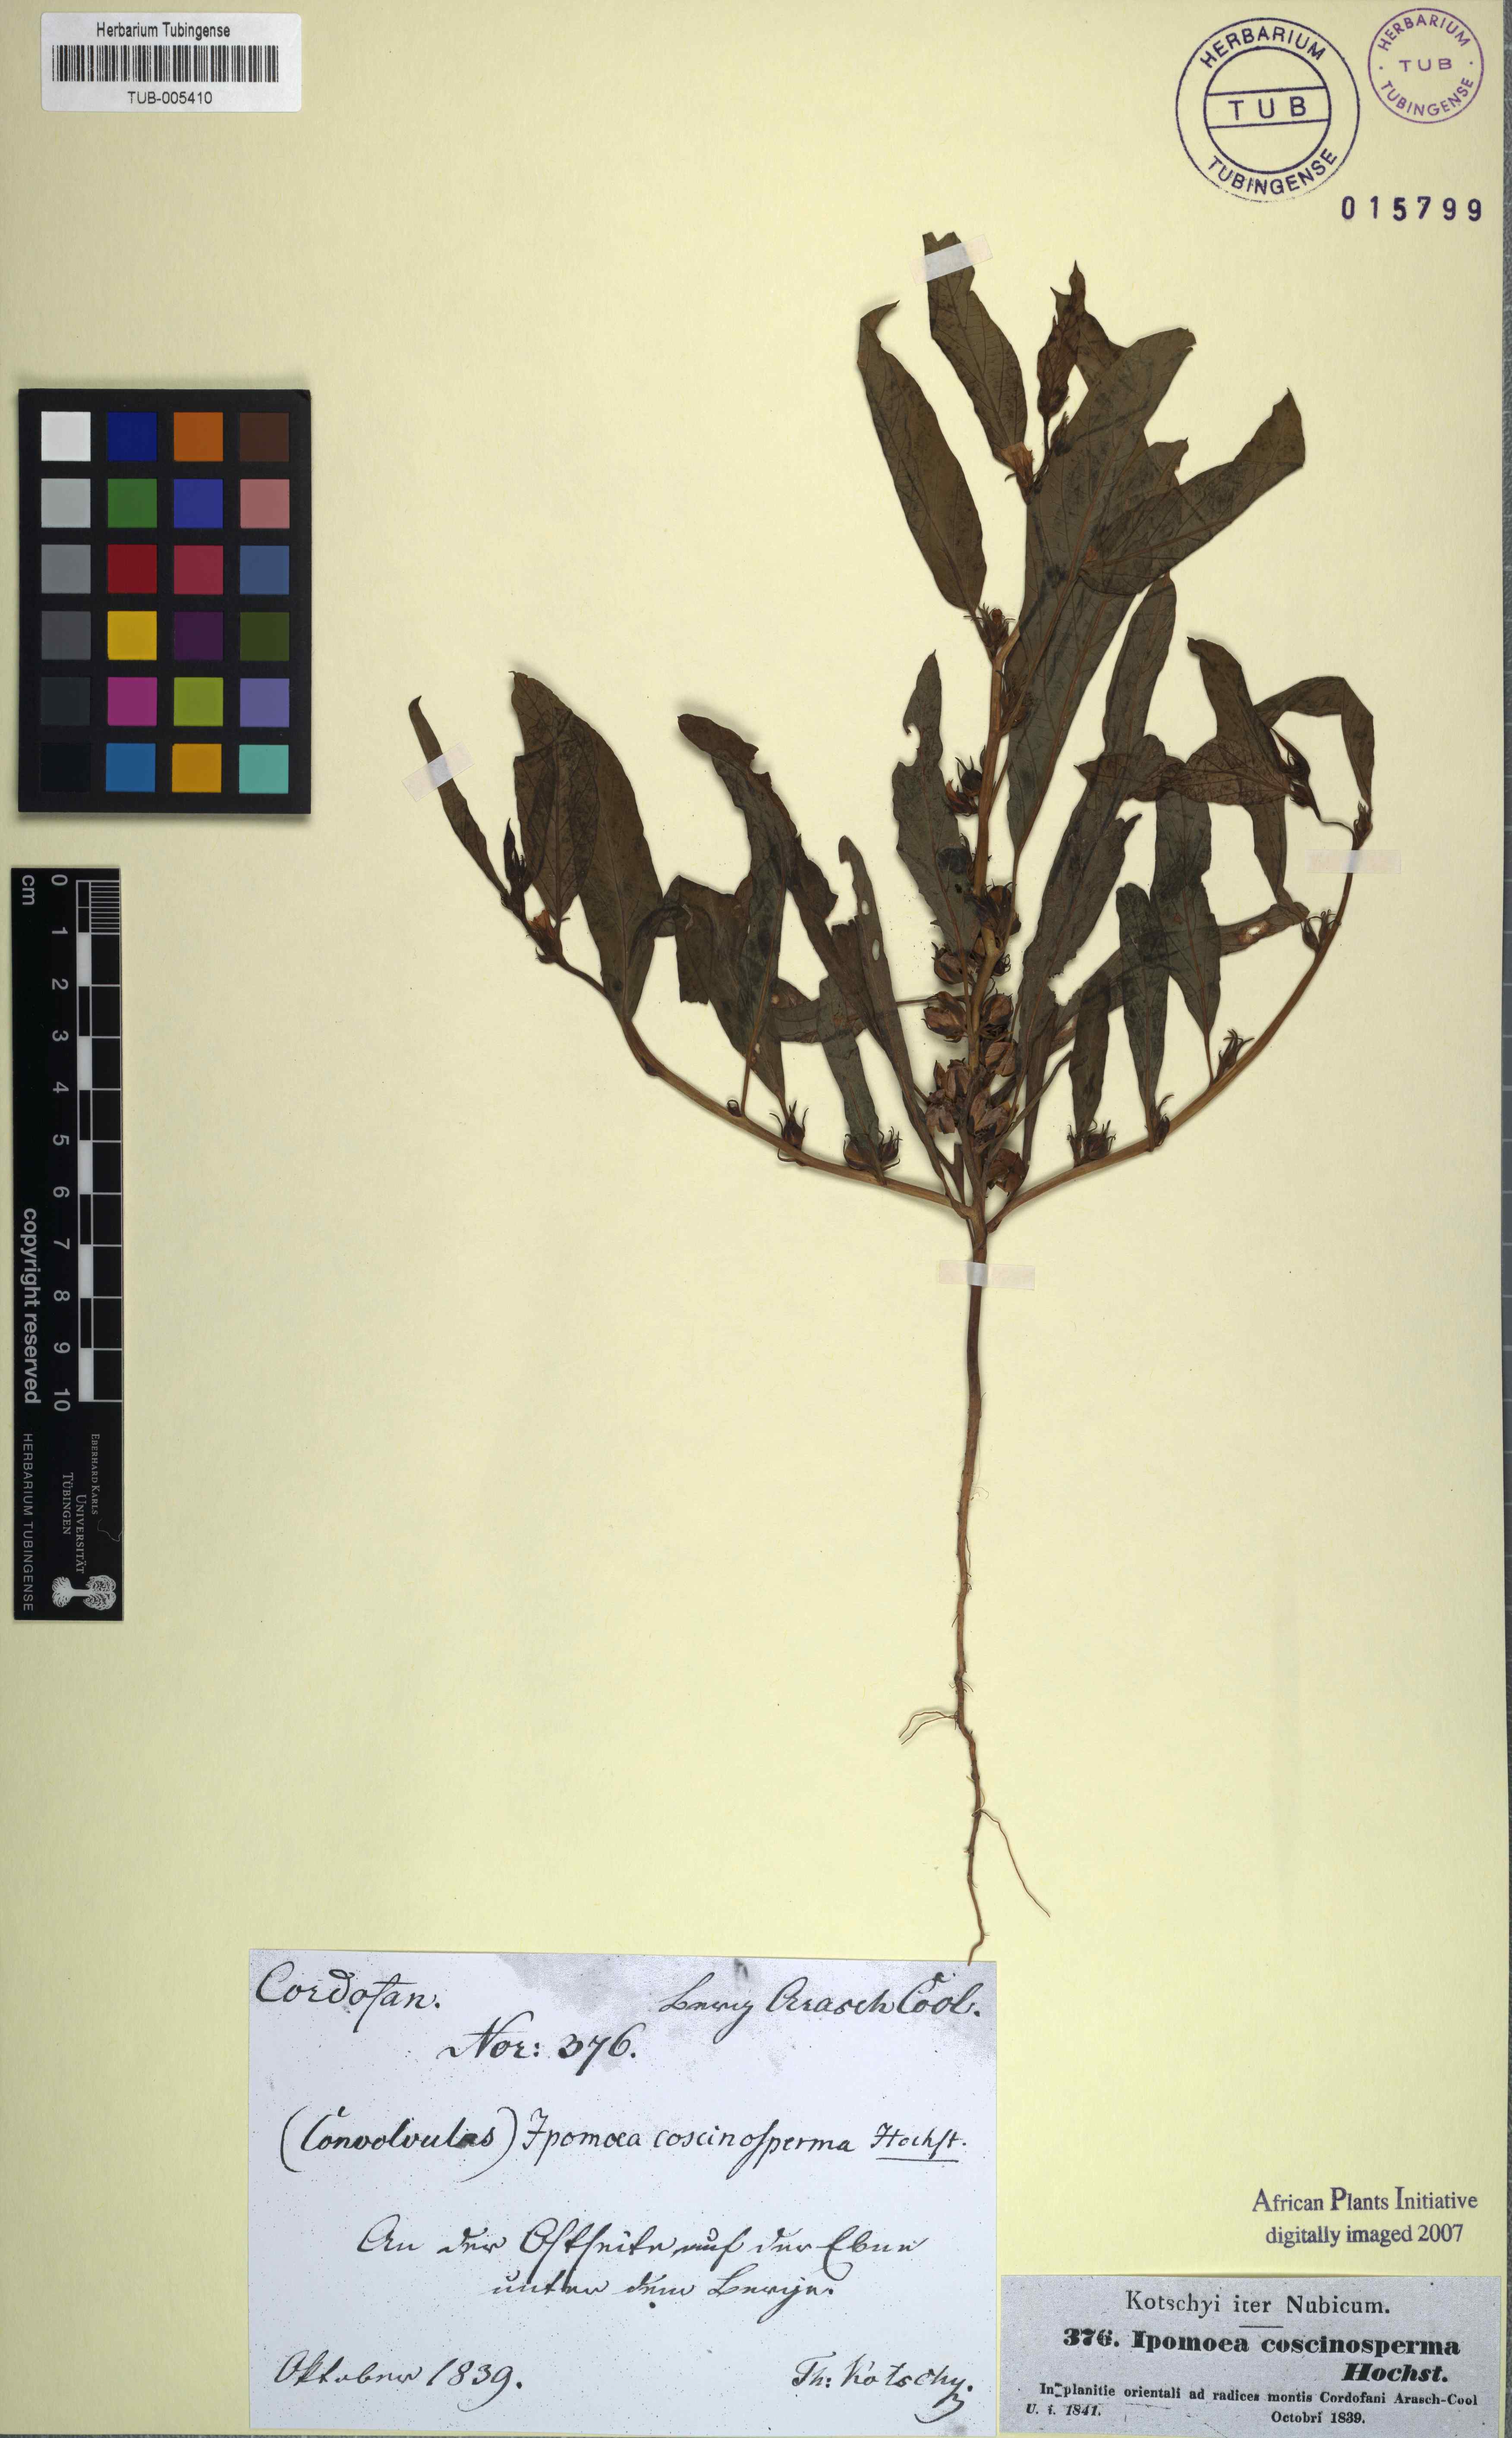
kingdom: Plantae
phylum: Tracheophyta
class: Magnoliopsida
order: Solanales
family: Convolvulaceae
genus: Ipomoea
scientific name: Ipomoea coscinosperma
